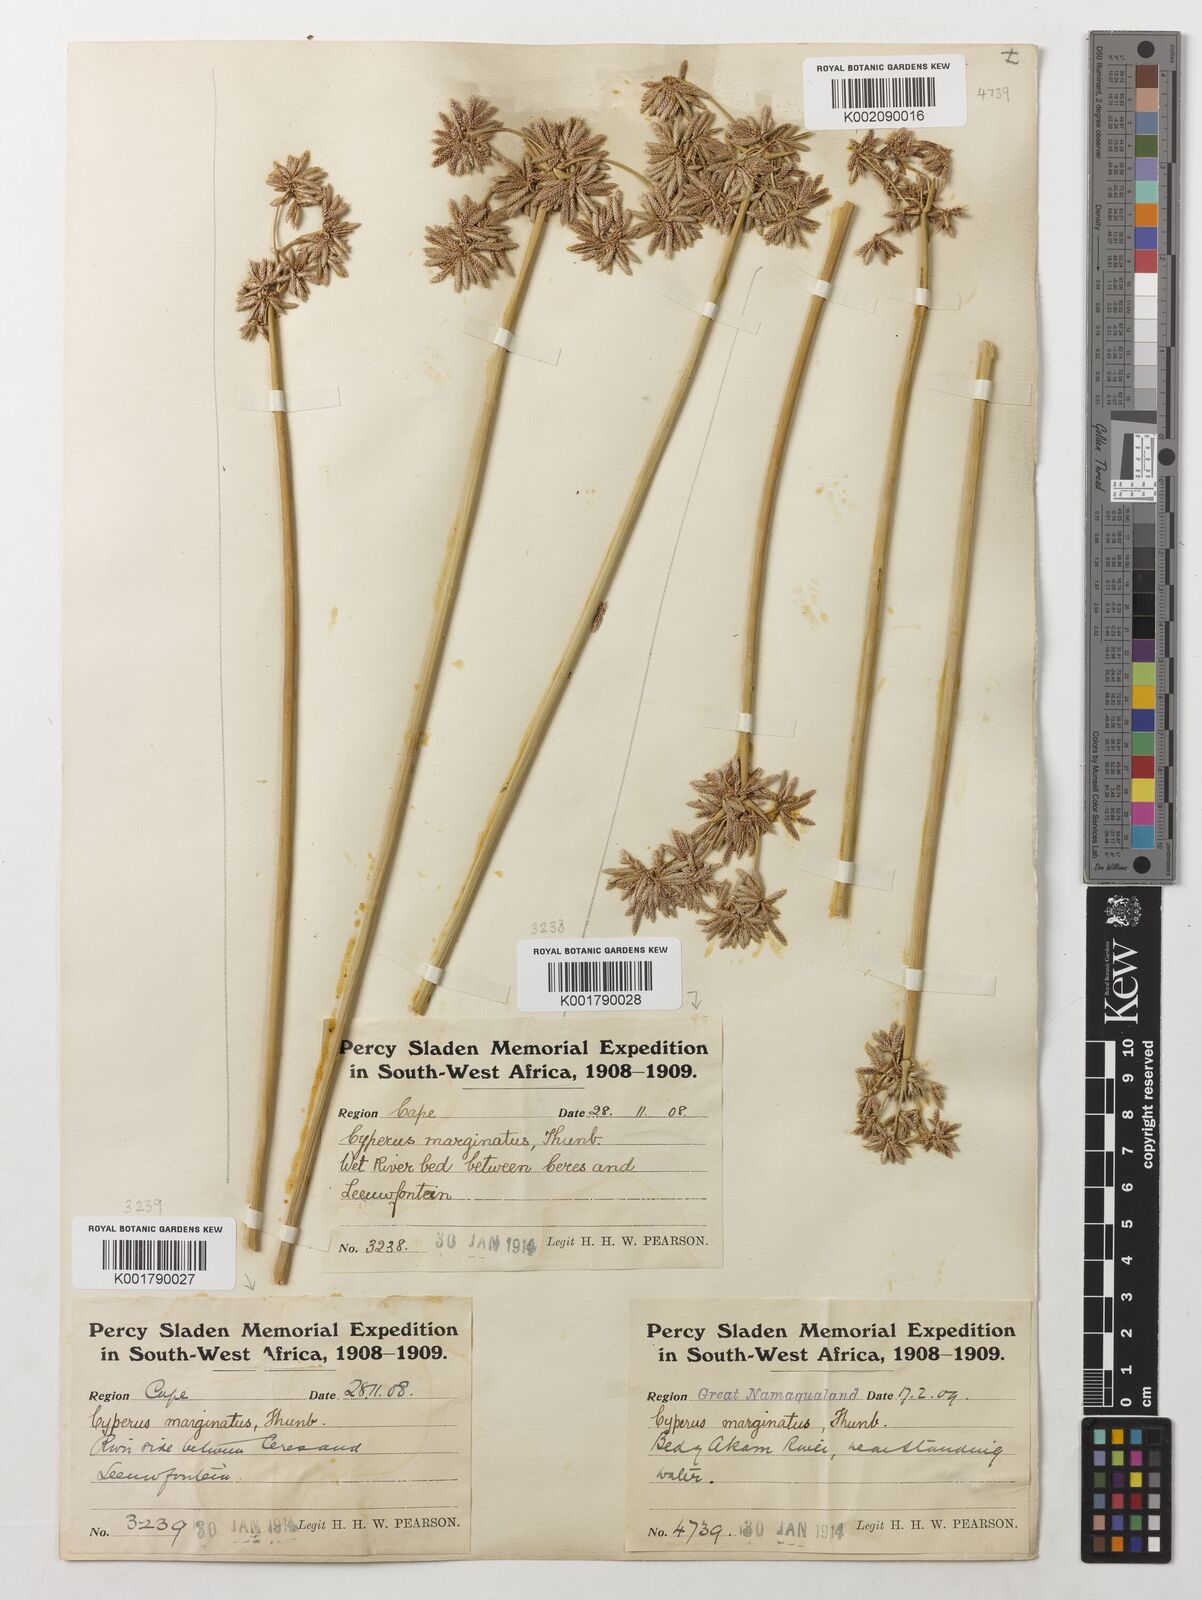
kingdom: Plantae
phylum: Tracheophyta
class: Liliopsida
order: Poales
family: Cyperaceae
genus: Cyperus
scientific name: Cyperus marginatus
